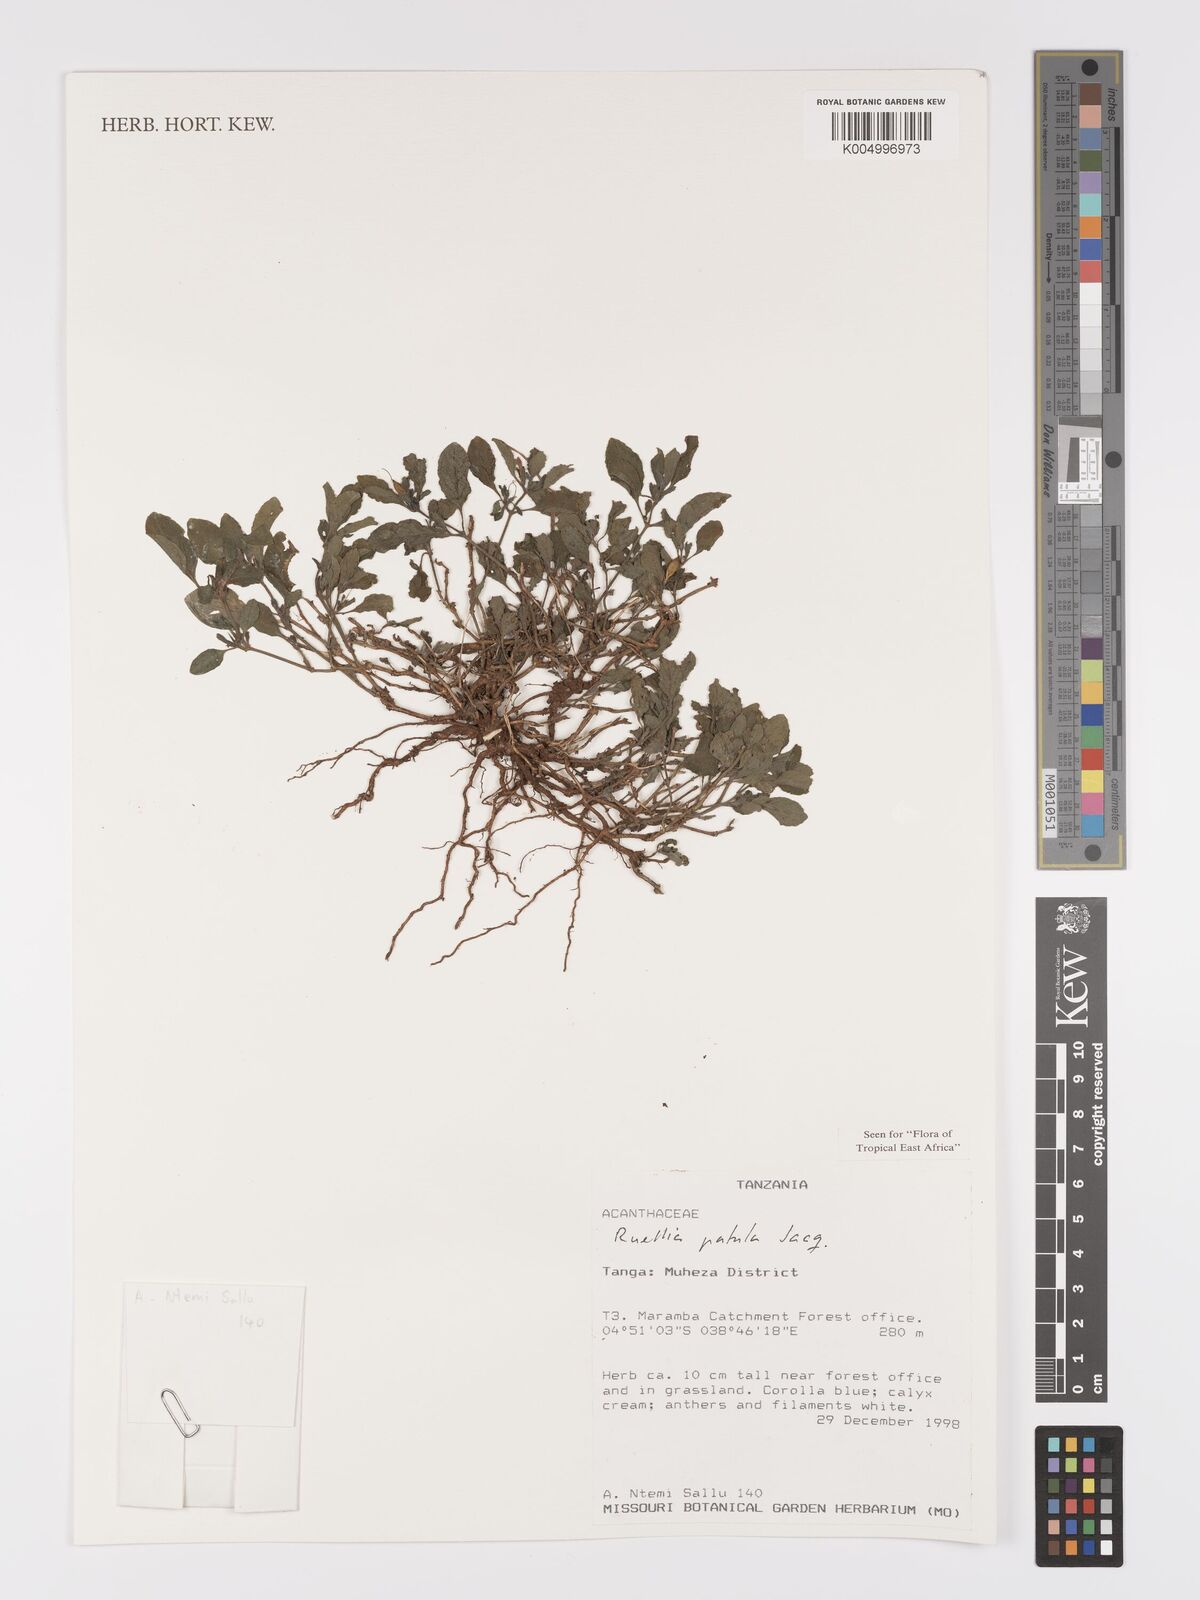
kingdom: Plantae
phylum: Tracheophyta
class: Magnoliopsida
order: Lamiales
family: Acanthaceae
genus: Ruellia
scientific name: Ruellia patula
